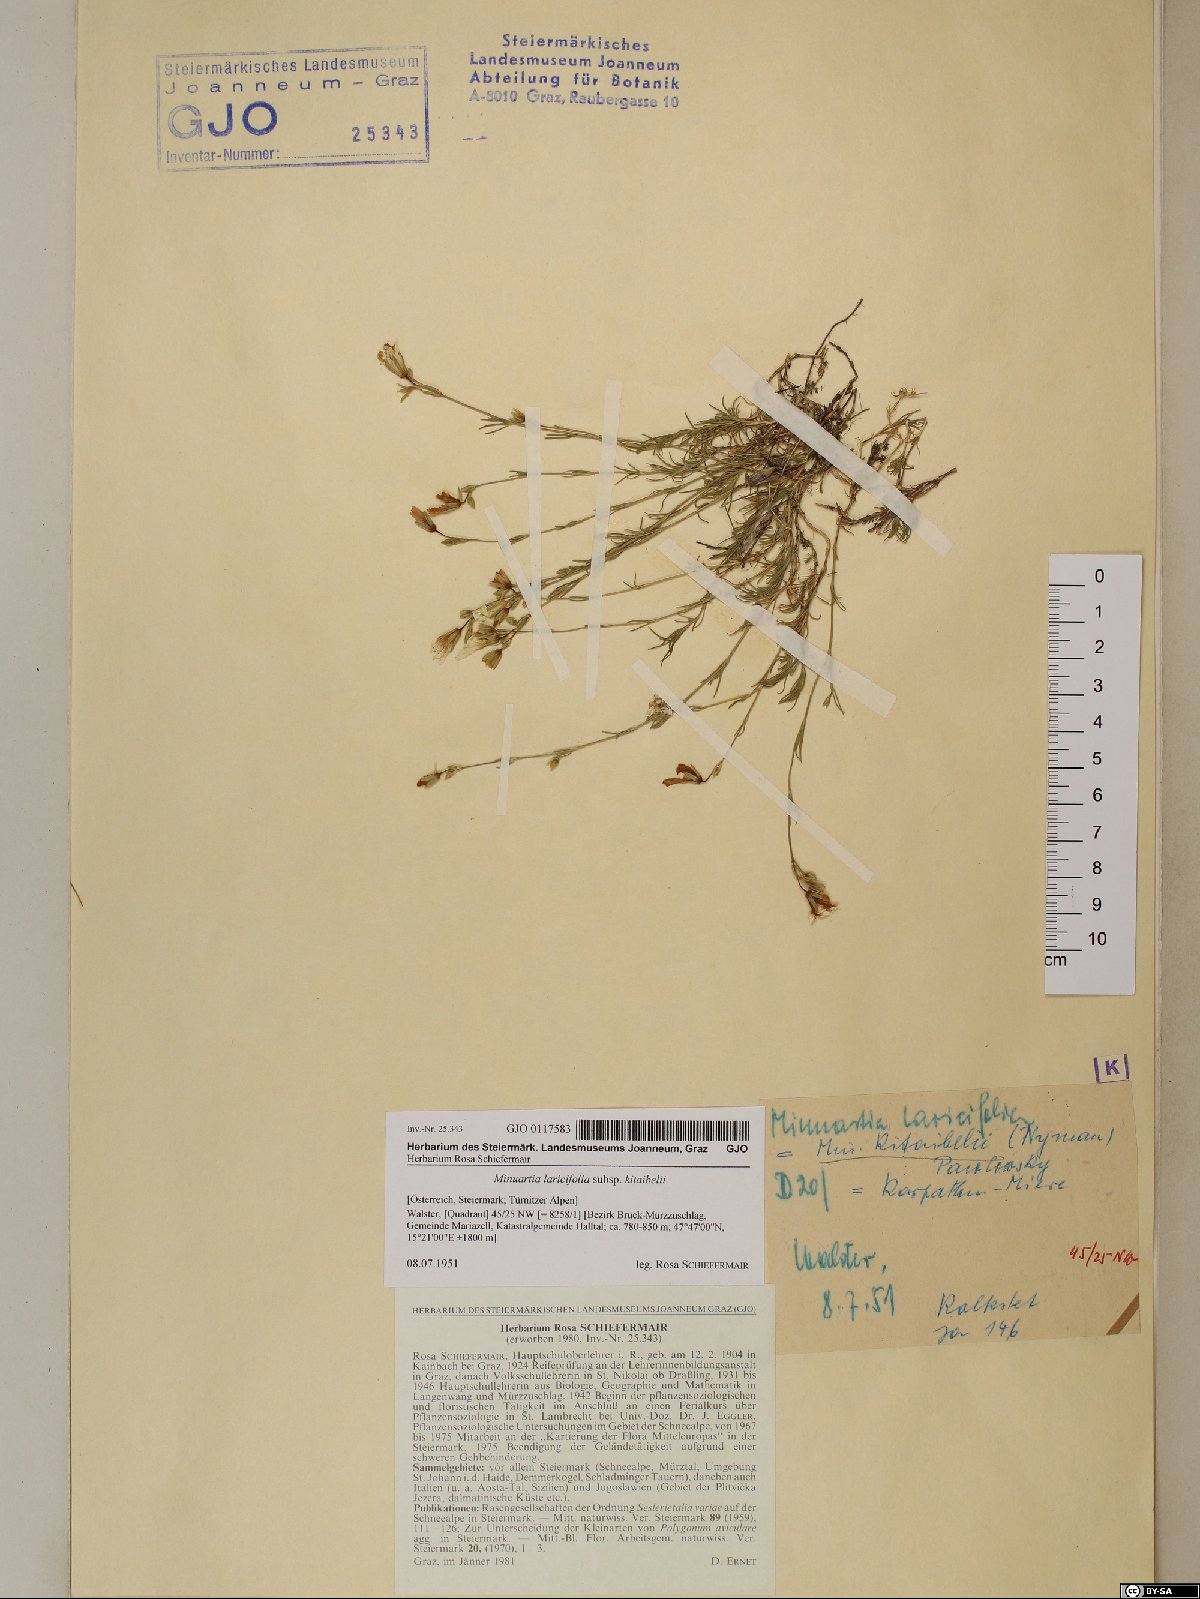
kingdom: Plantae
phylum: Tracheophyta
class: Magnoliopsida
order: Caryophyllales
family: Caryophyllaceae
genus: Cherleria
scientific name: Cherleria langii
